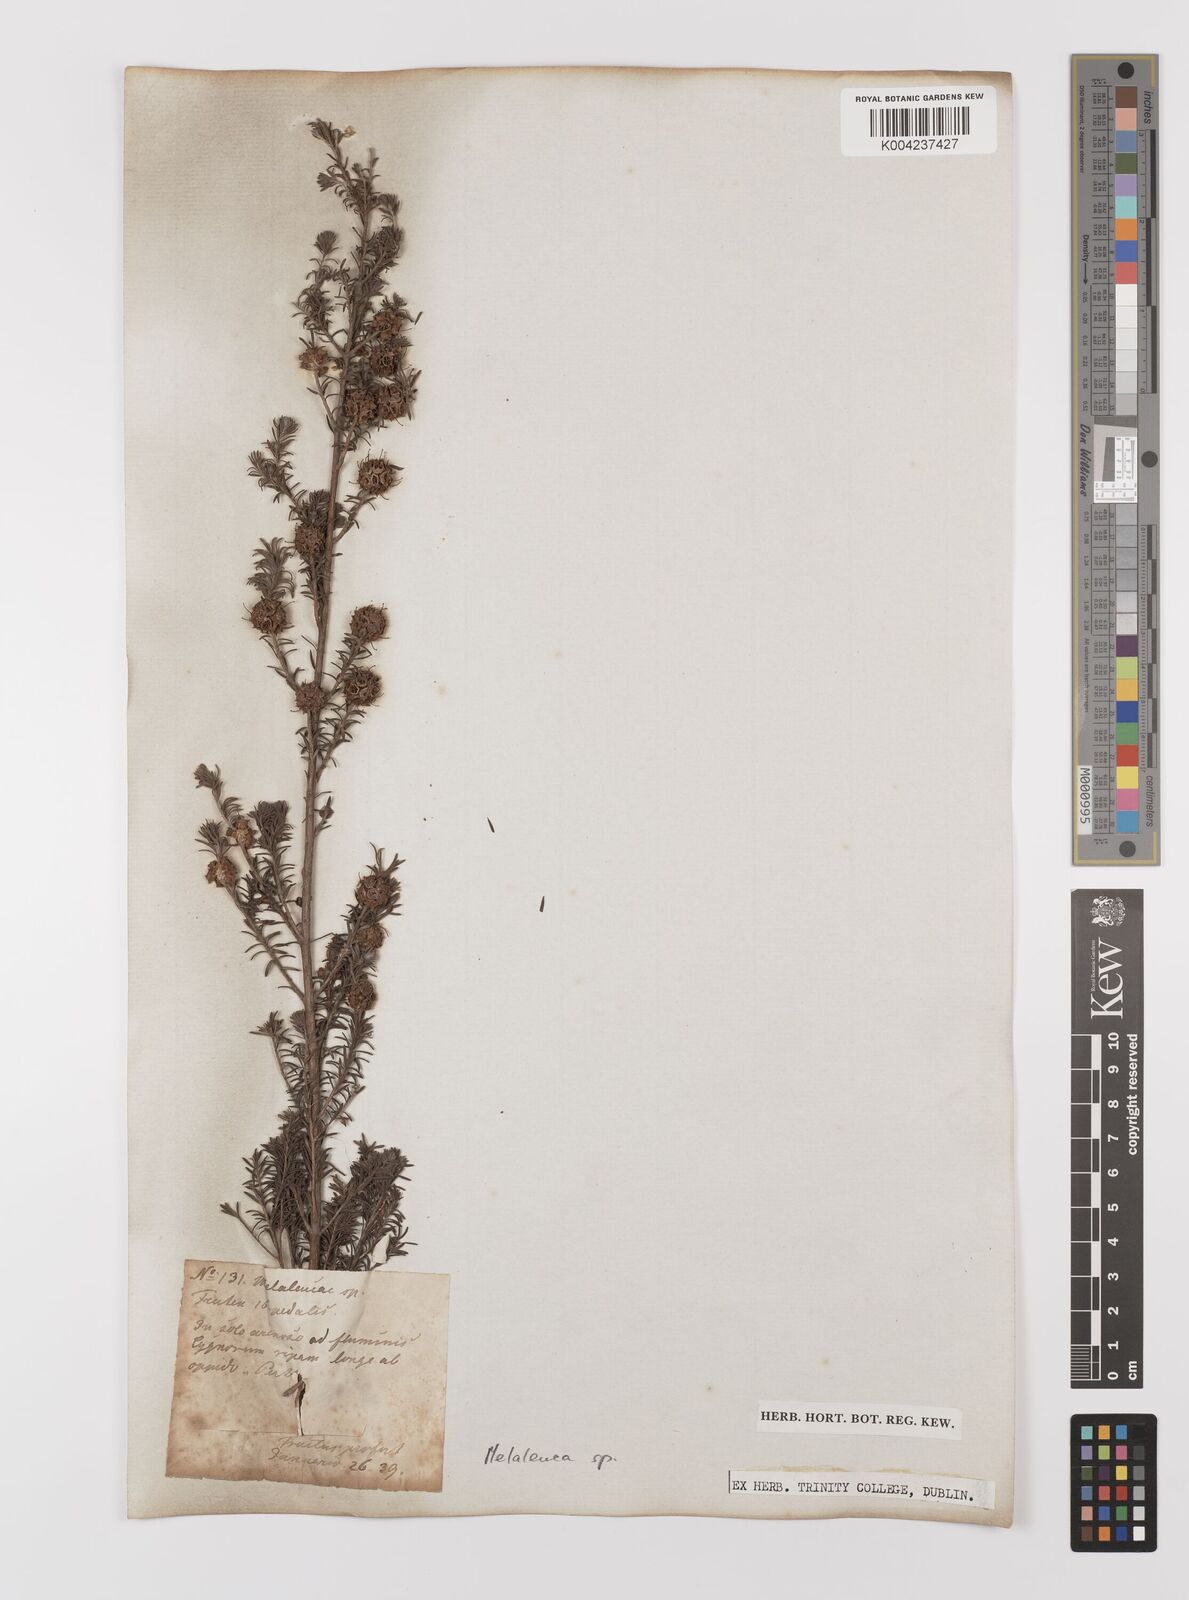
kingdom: Plantae
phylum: Tracheophyta
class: Magnoliopsida
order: Myrtales
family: Myrtaceae
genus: Melaleuca
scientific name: Melaleuca
